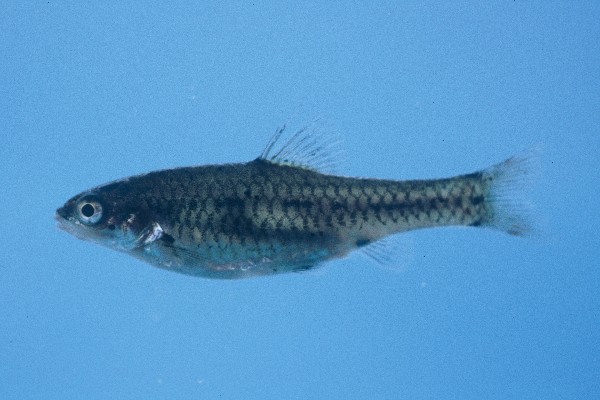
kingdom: Animalia
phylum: Chordata
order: Cypriniformes
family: Cyprinidae
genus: Enteromius
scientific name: Enteromius brevipinnis
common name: Shortfin barb
